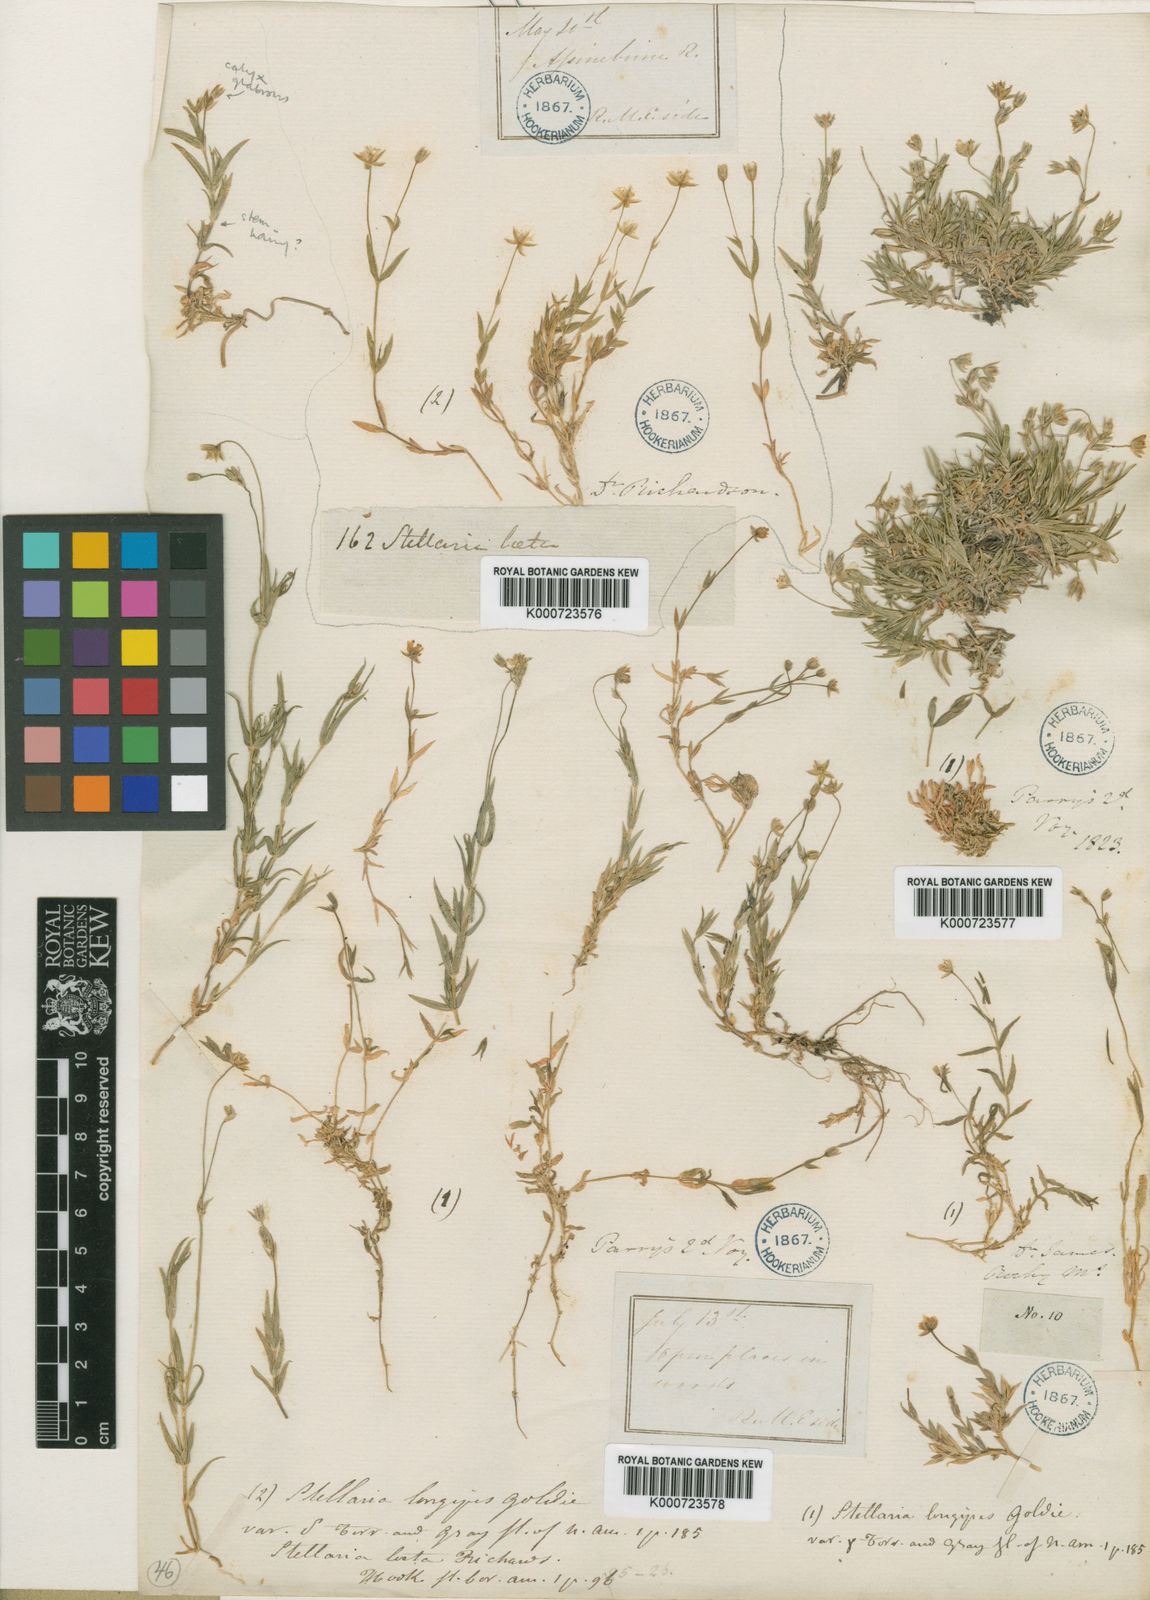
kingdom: Plantae
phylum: Tracheophyta
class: Magnoliopsida
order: Caryophyllales
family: Caryophyllaceae
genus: Stellaria
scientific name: Stellaria laeta
